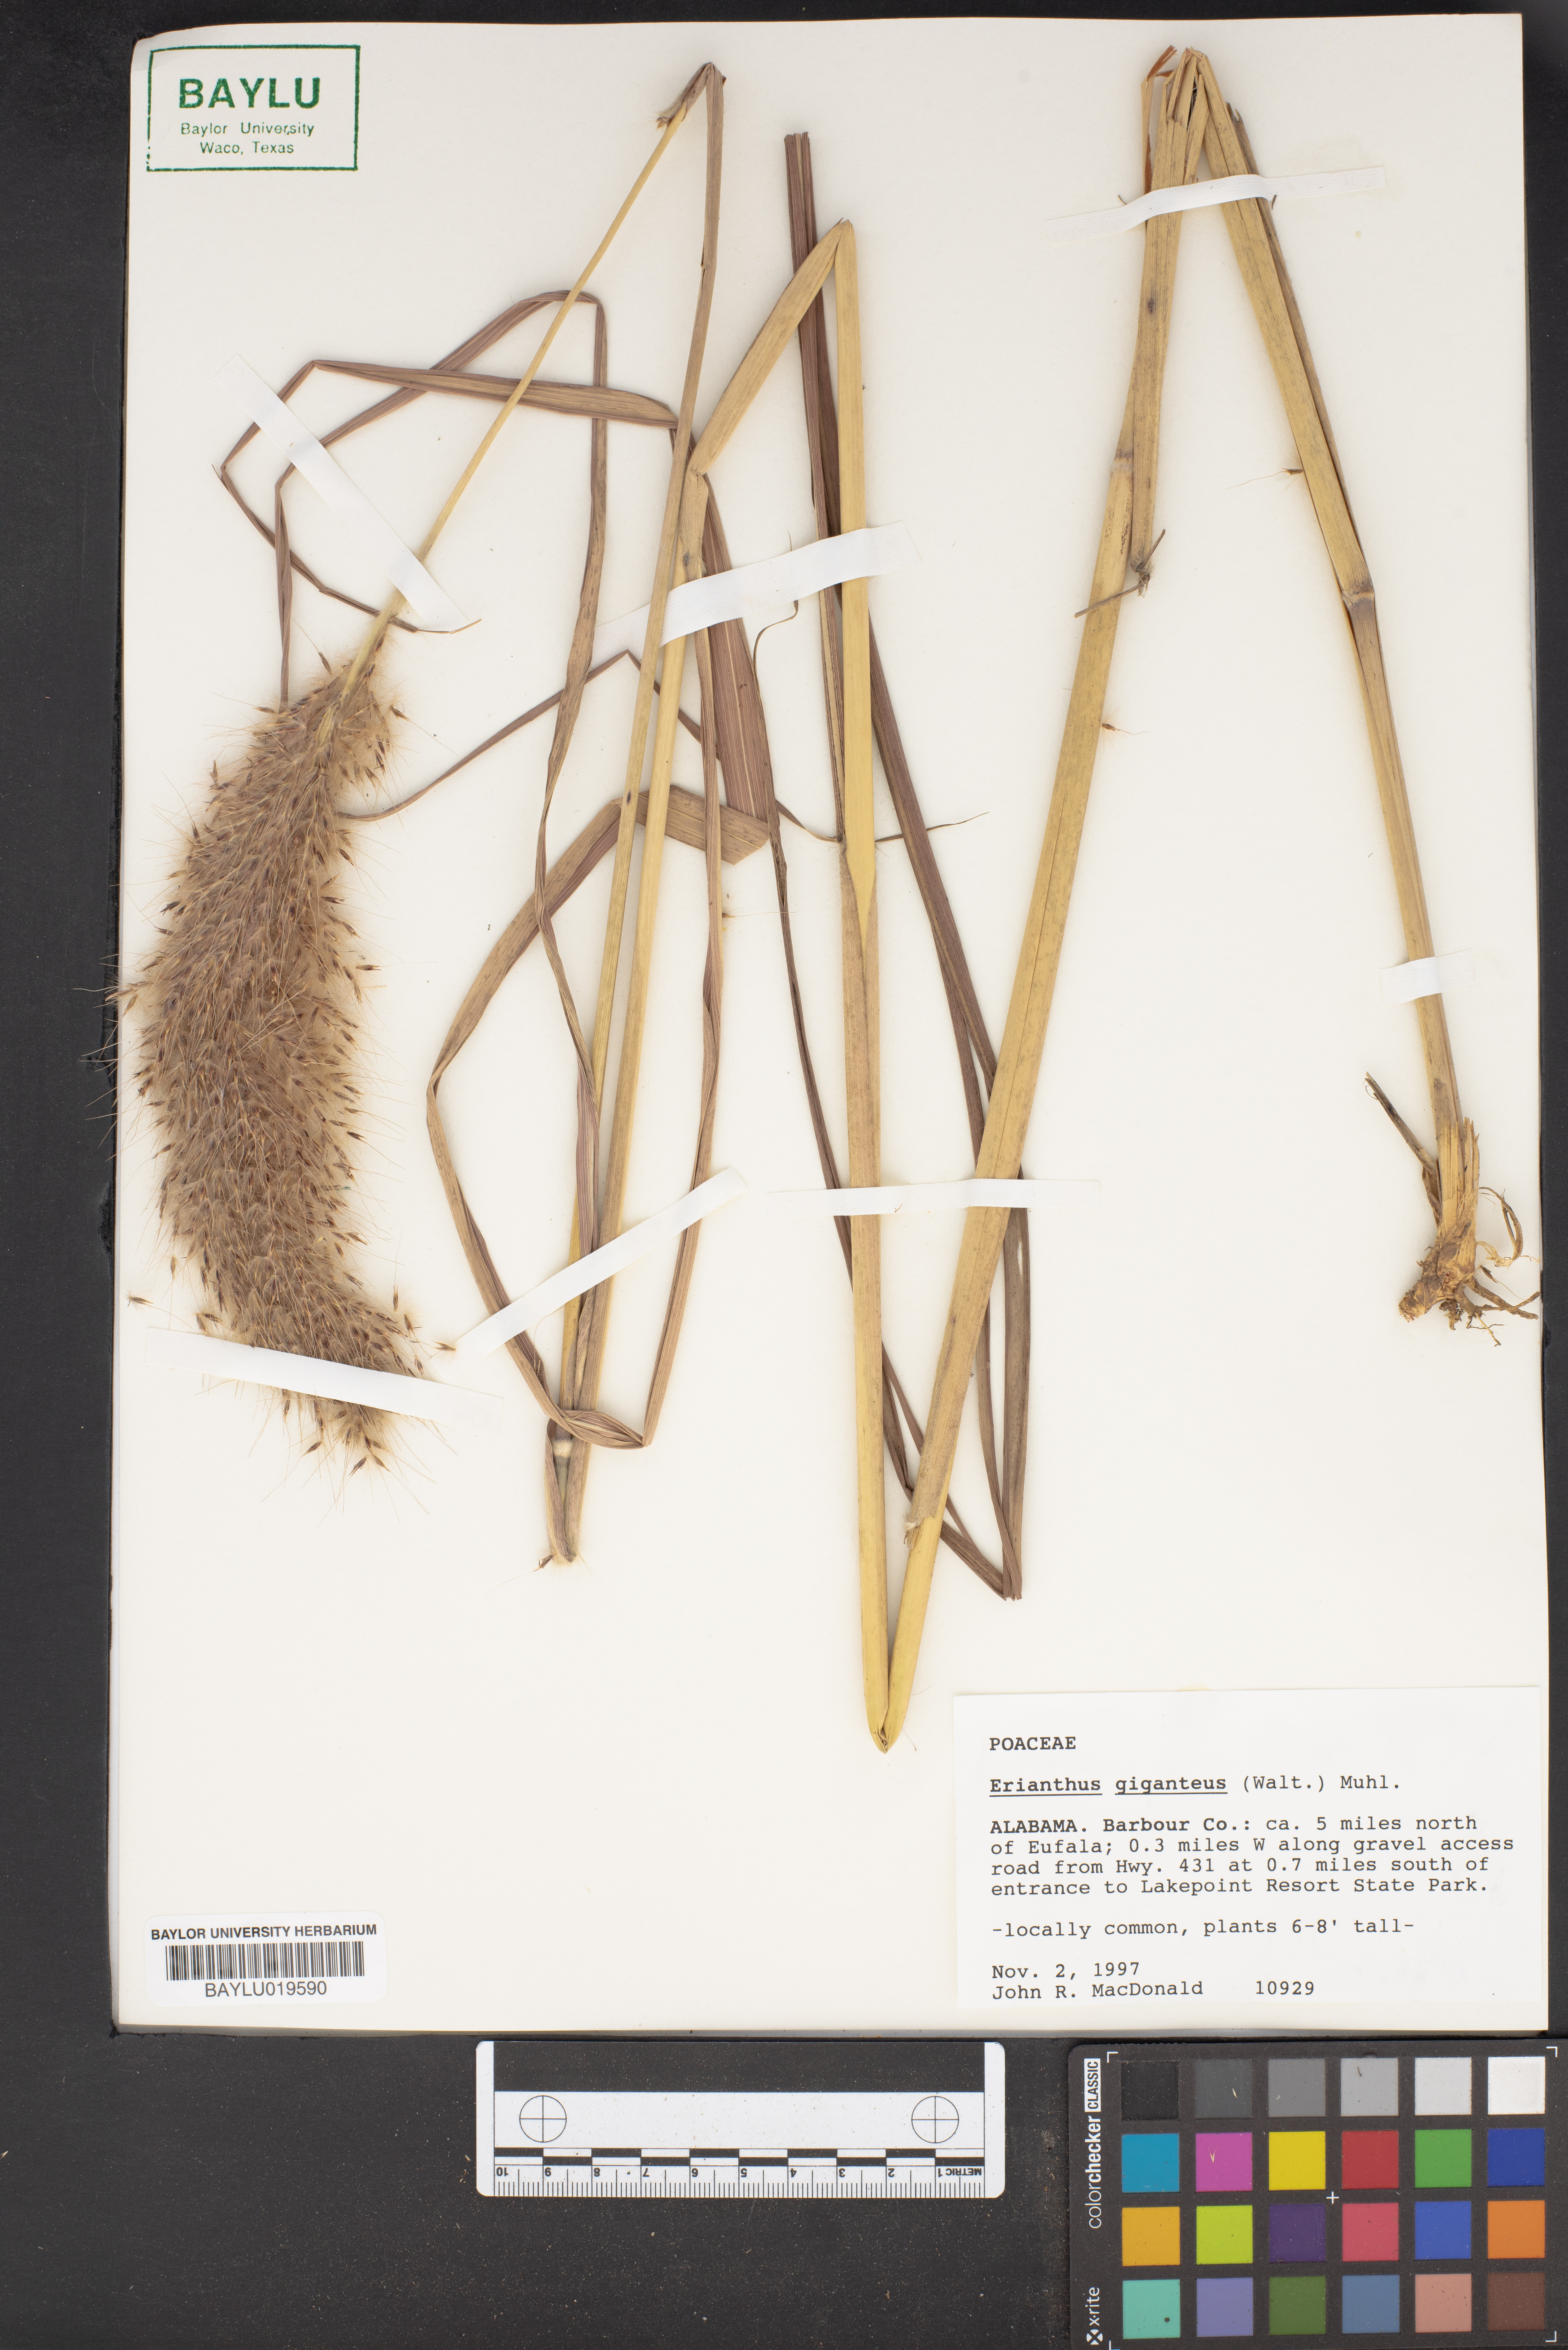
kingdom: Plantae
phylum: Tracheophyta
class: Liliopsida
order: Poales
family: Poaceae
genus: Erianthus
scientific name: Erianthus giganteus
